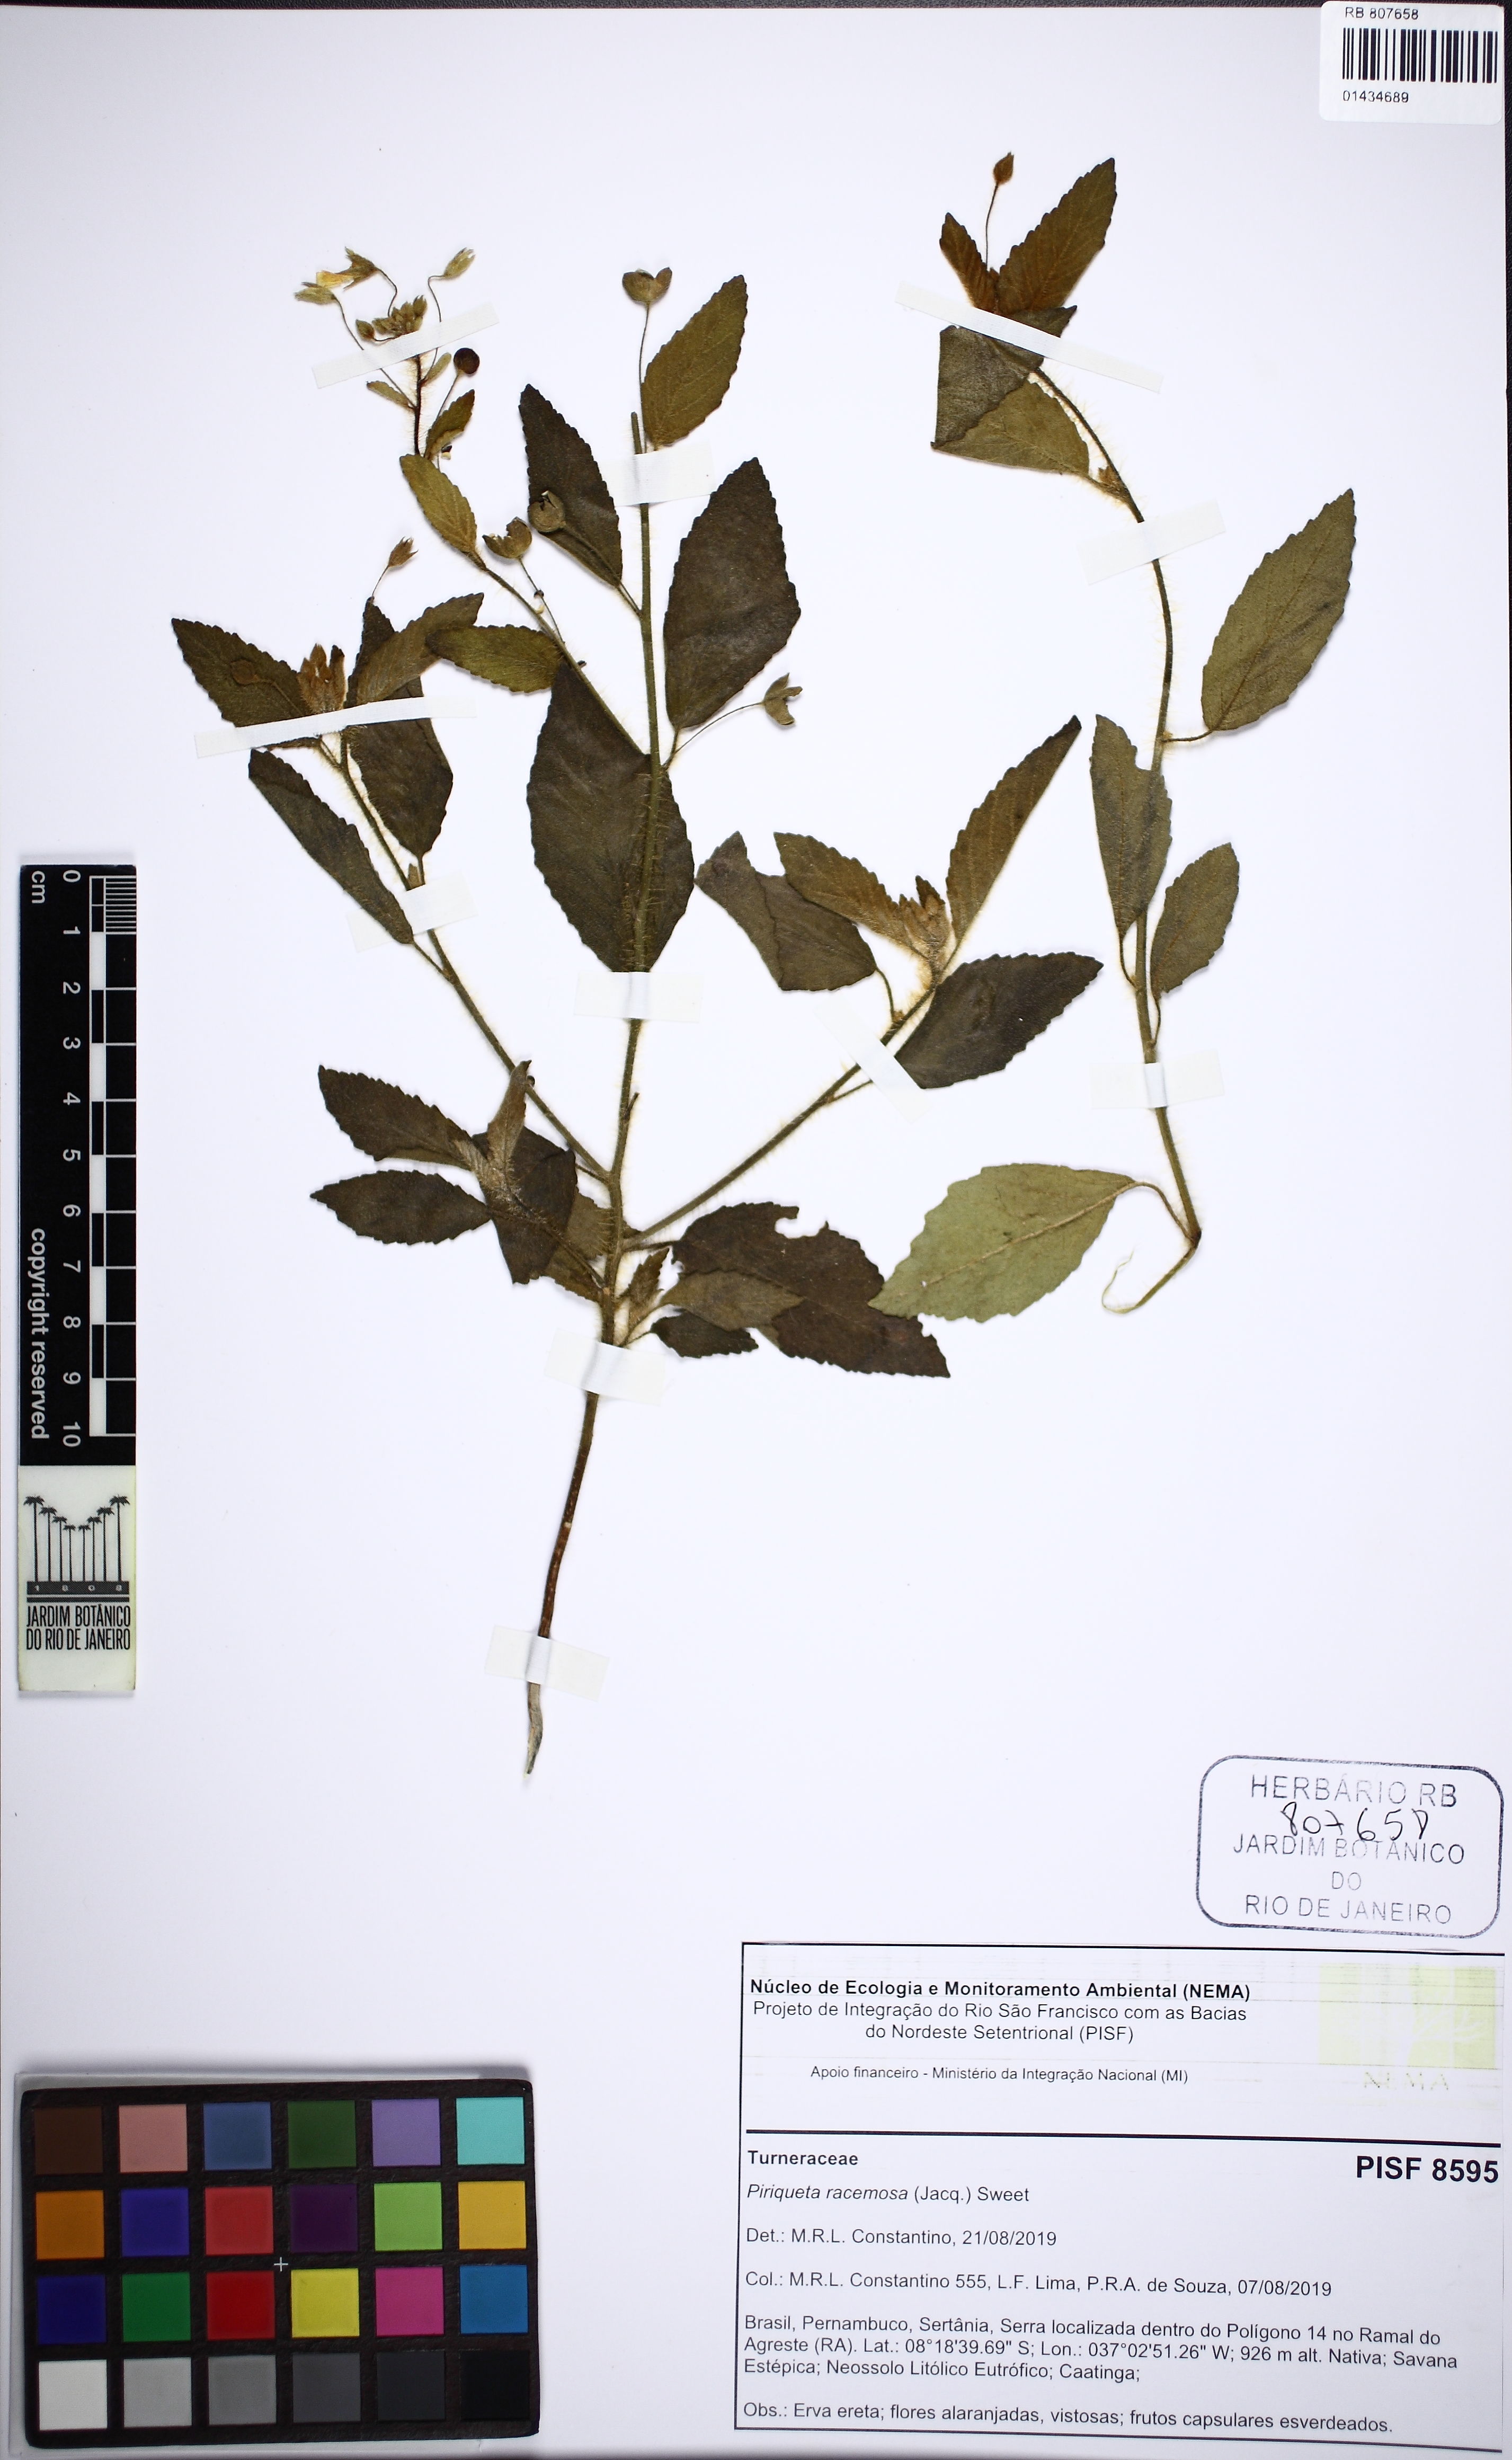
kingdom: Plantae
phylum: Tracheophyta
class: Magnoliopsida
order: Malpighiales
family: Turneraceae
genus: Piriqueta
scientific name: Piriqueta racemosa
